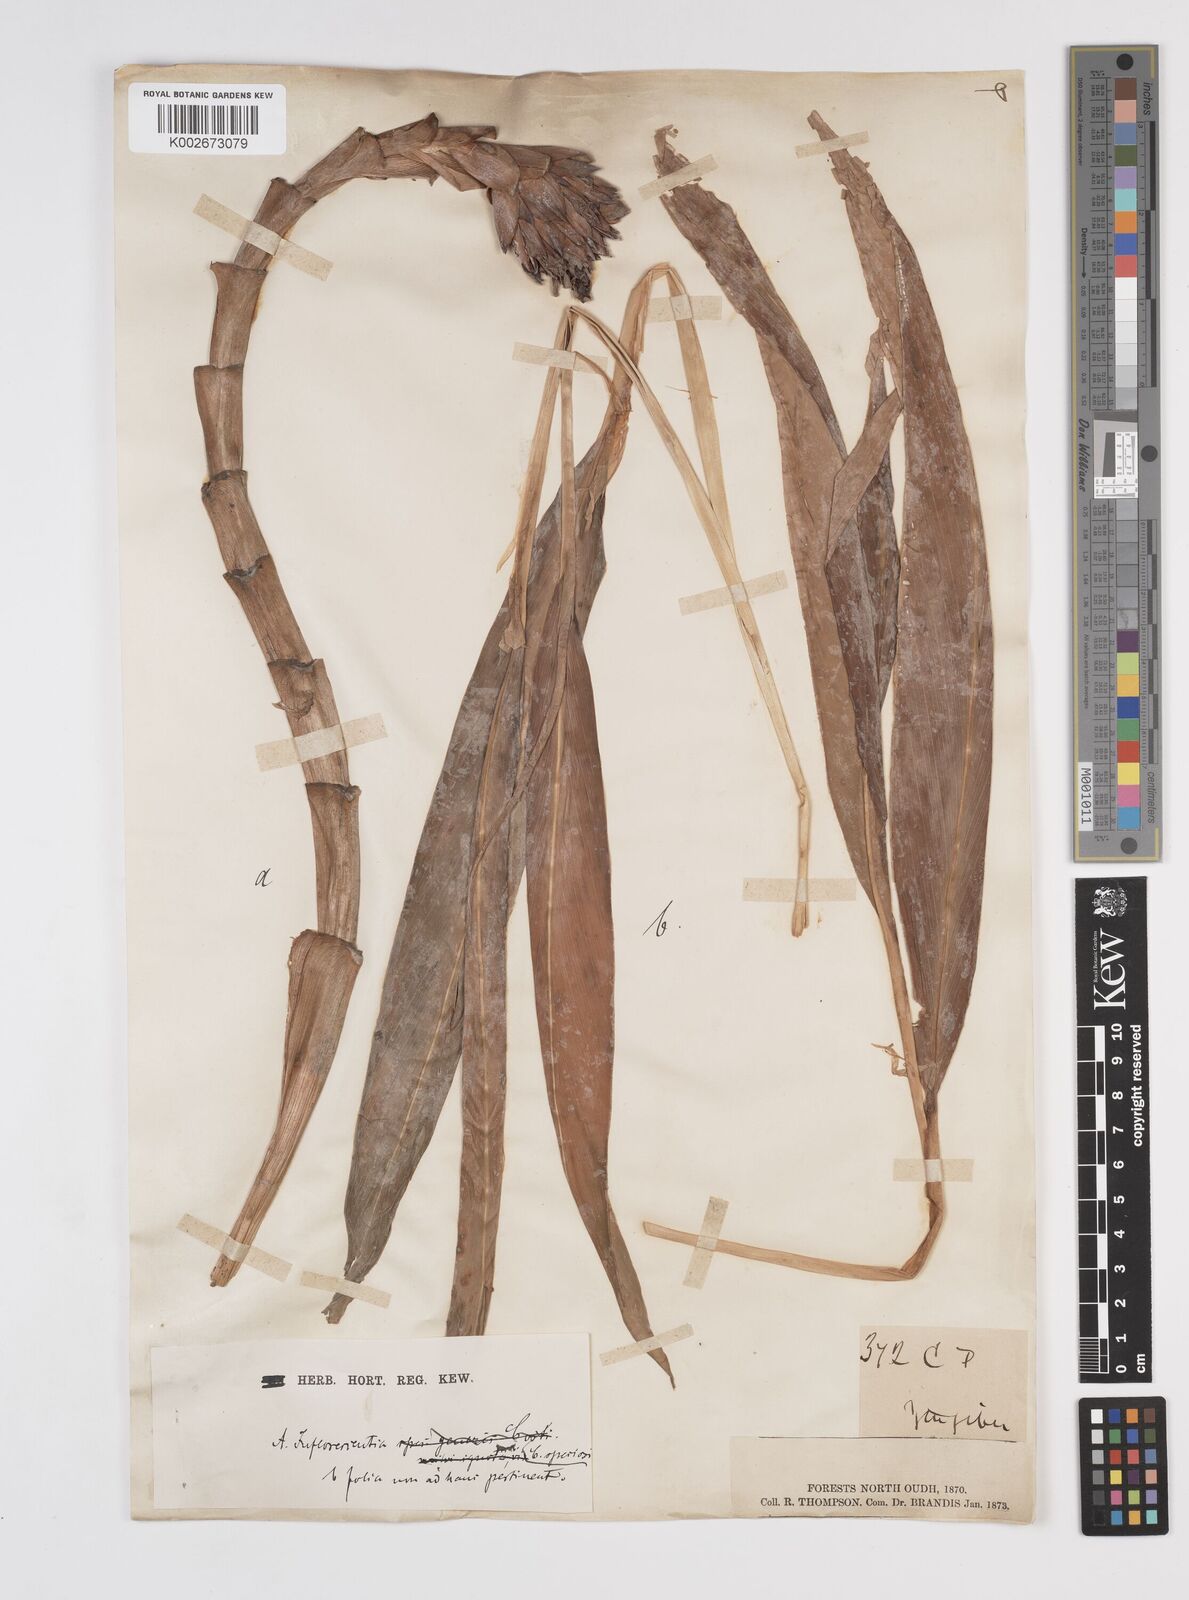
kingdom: Plantae
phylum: Tracheophyta
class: Liliopsida
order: Zingiberales
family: Zingiberaceae
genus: Amomum
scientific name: Amomum
